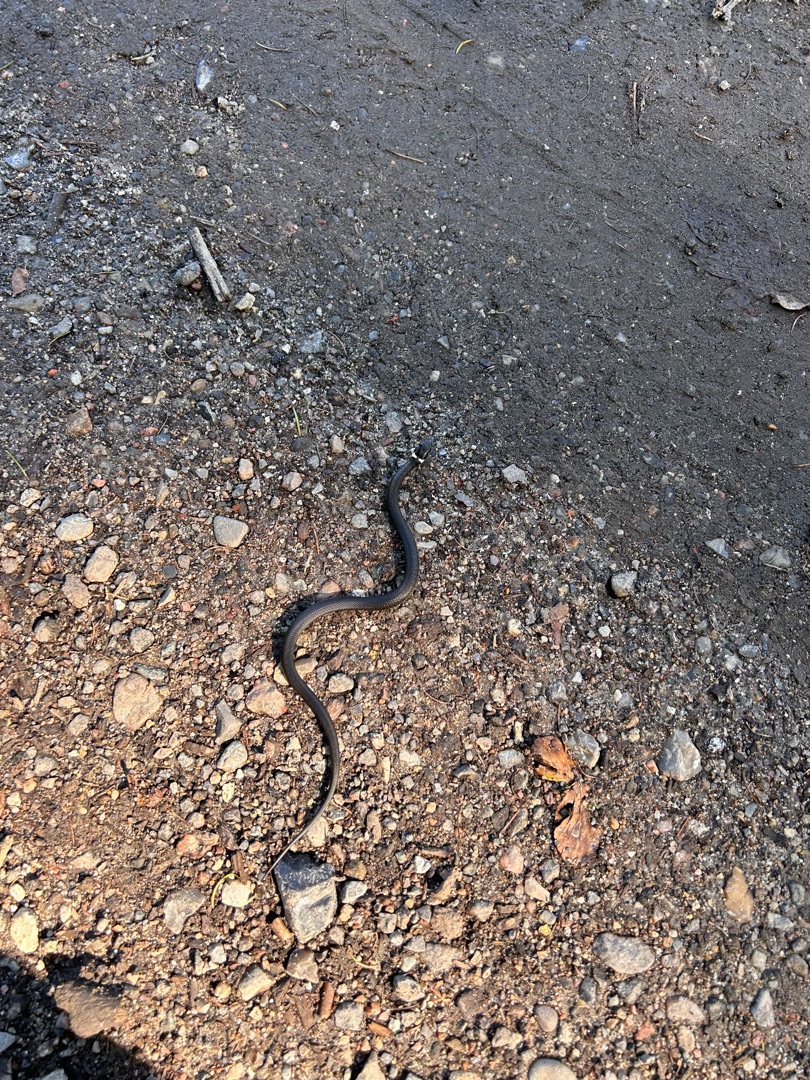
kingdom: Animalia
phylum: Chordata
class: Squamata
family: Colubridae
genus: Natrix
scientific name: Natrix natrix
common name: Snog
